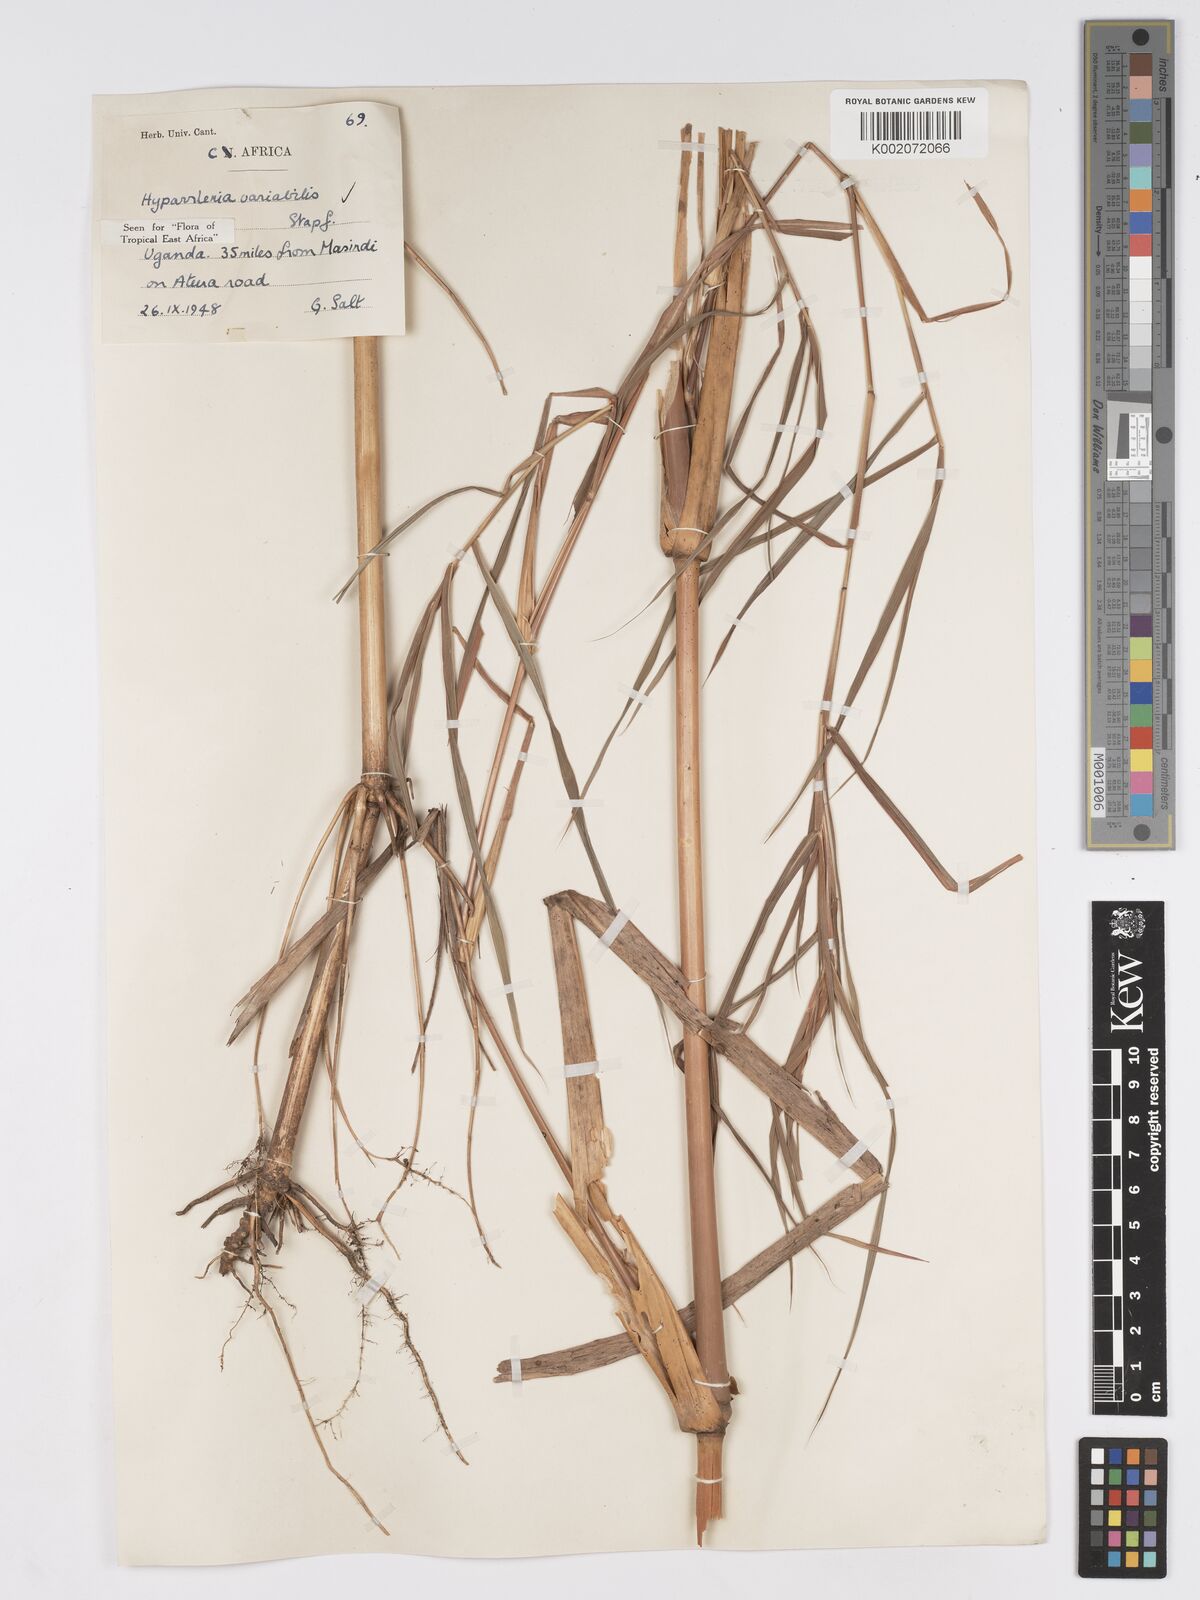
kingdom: Plantae
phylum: Tracheophyta
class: Liliopsida
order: Poales
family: Poaceae
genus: Hyparrhenia
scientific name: Hyparrhenia variabilis
